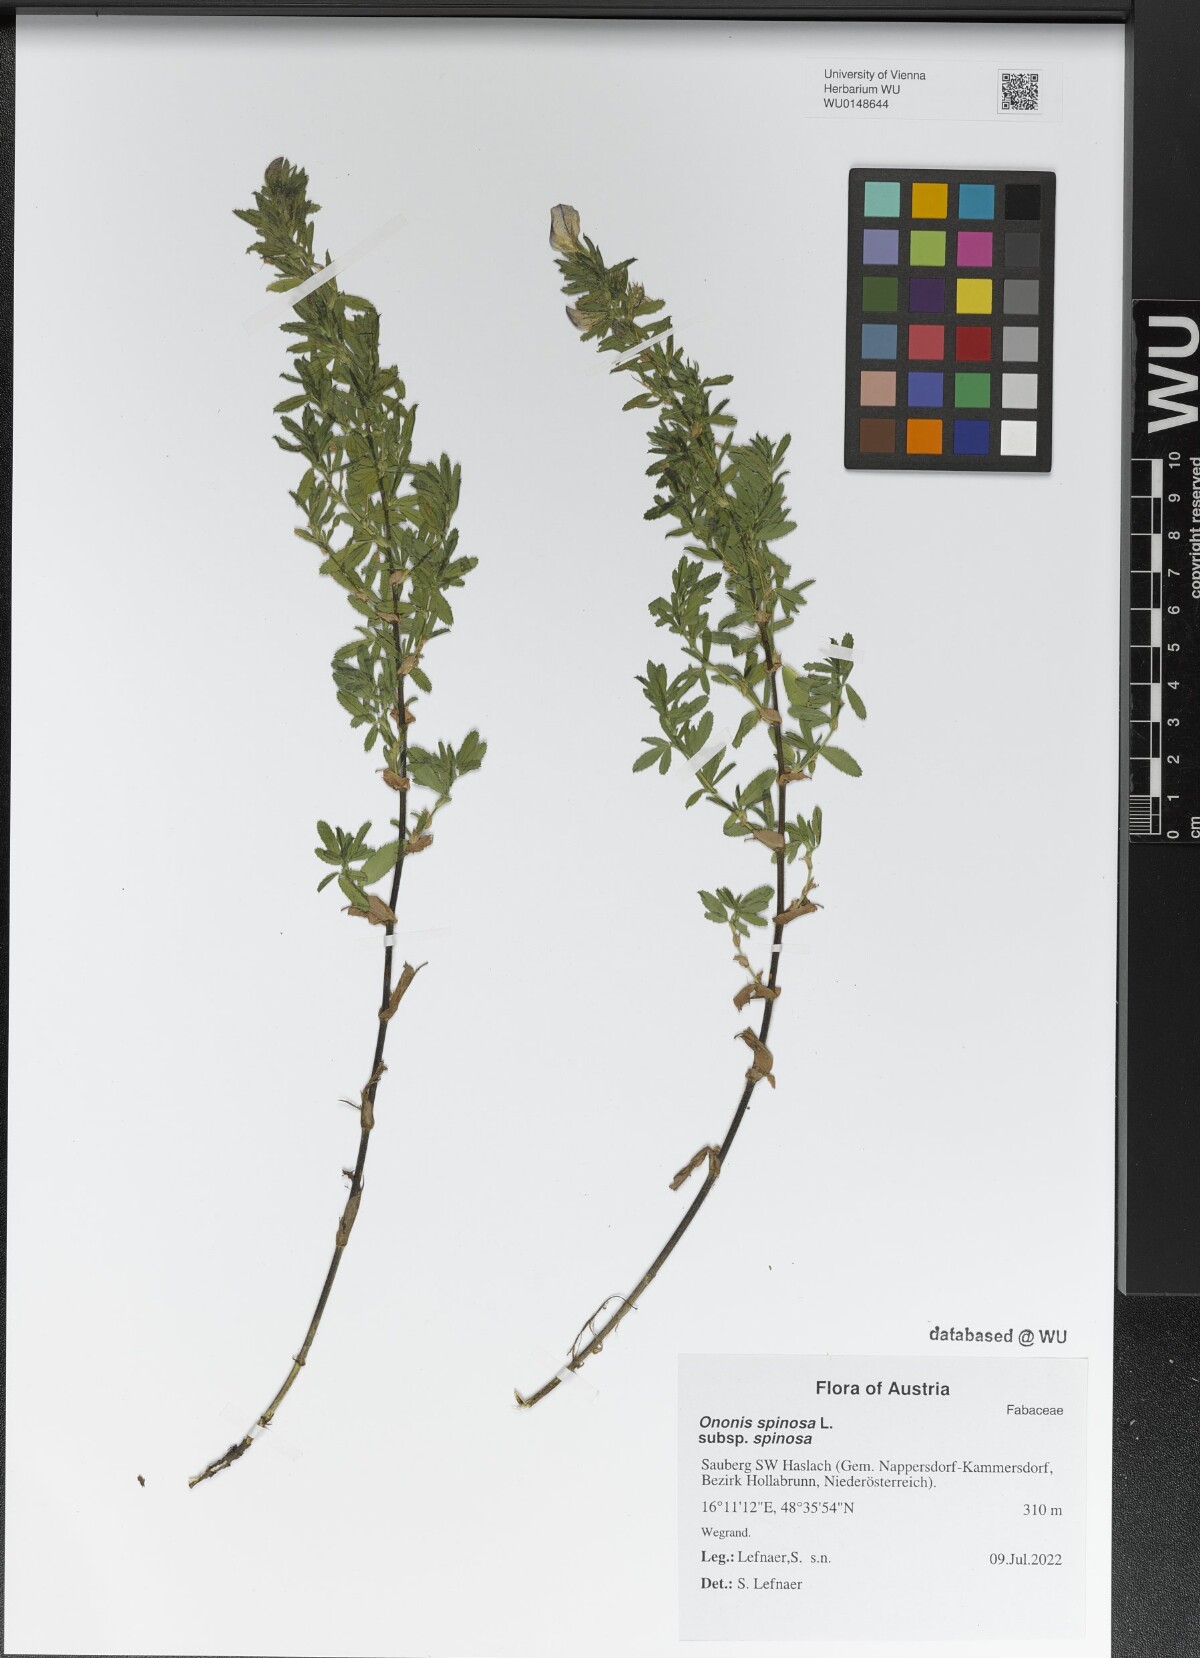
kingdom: Plantae
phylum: Tracheophyta
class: Magnoliopsida
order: Fabales
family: Fabaceae
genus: Ononis
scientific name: Ononis spinosa
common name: Spiny restharrow
